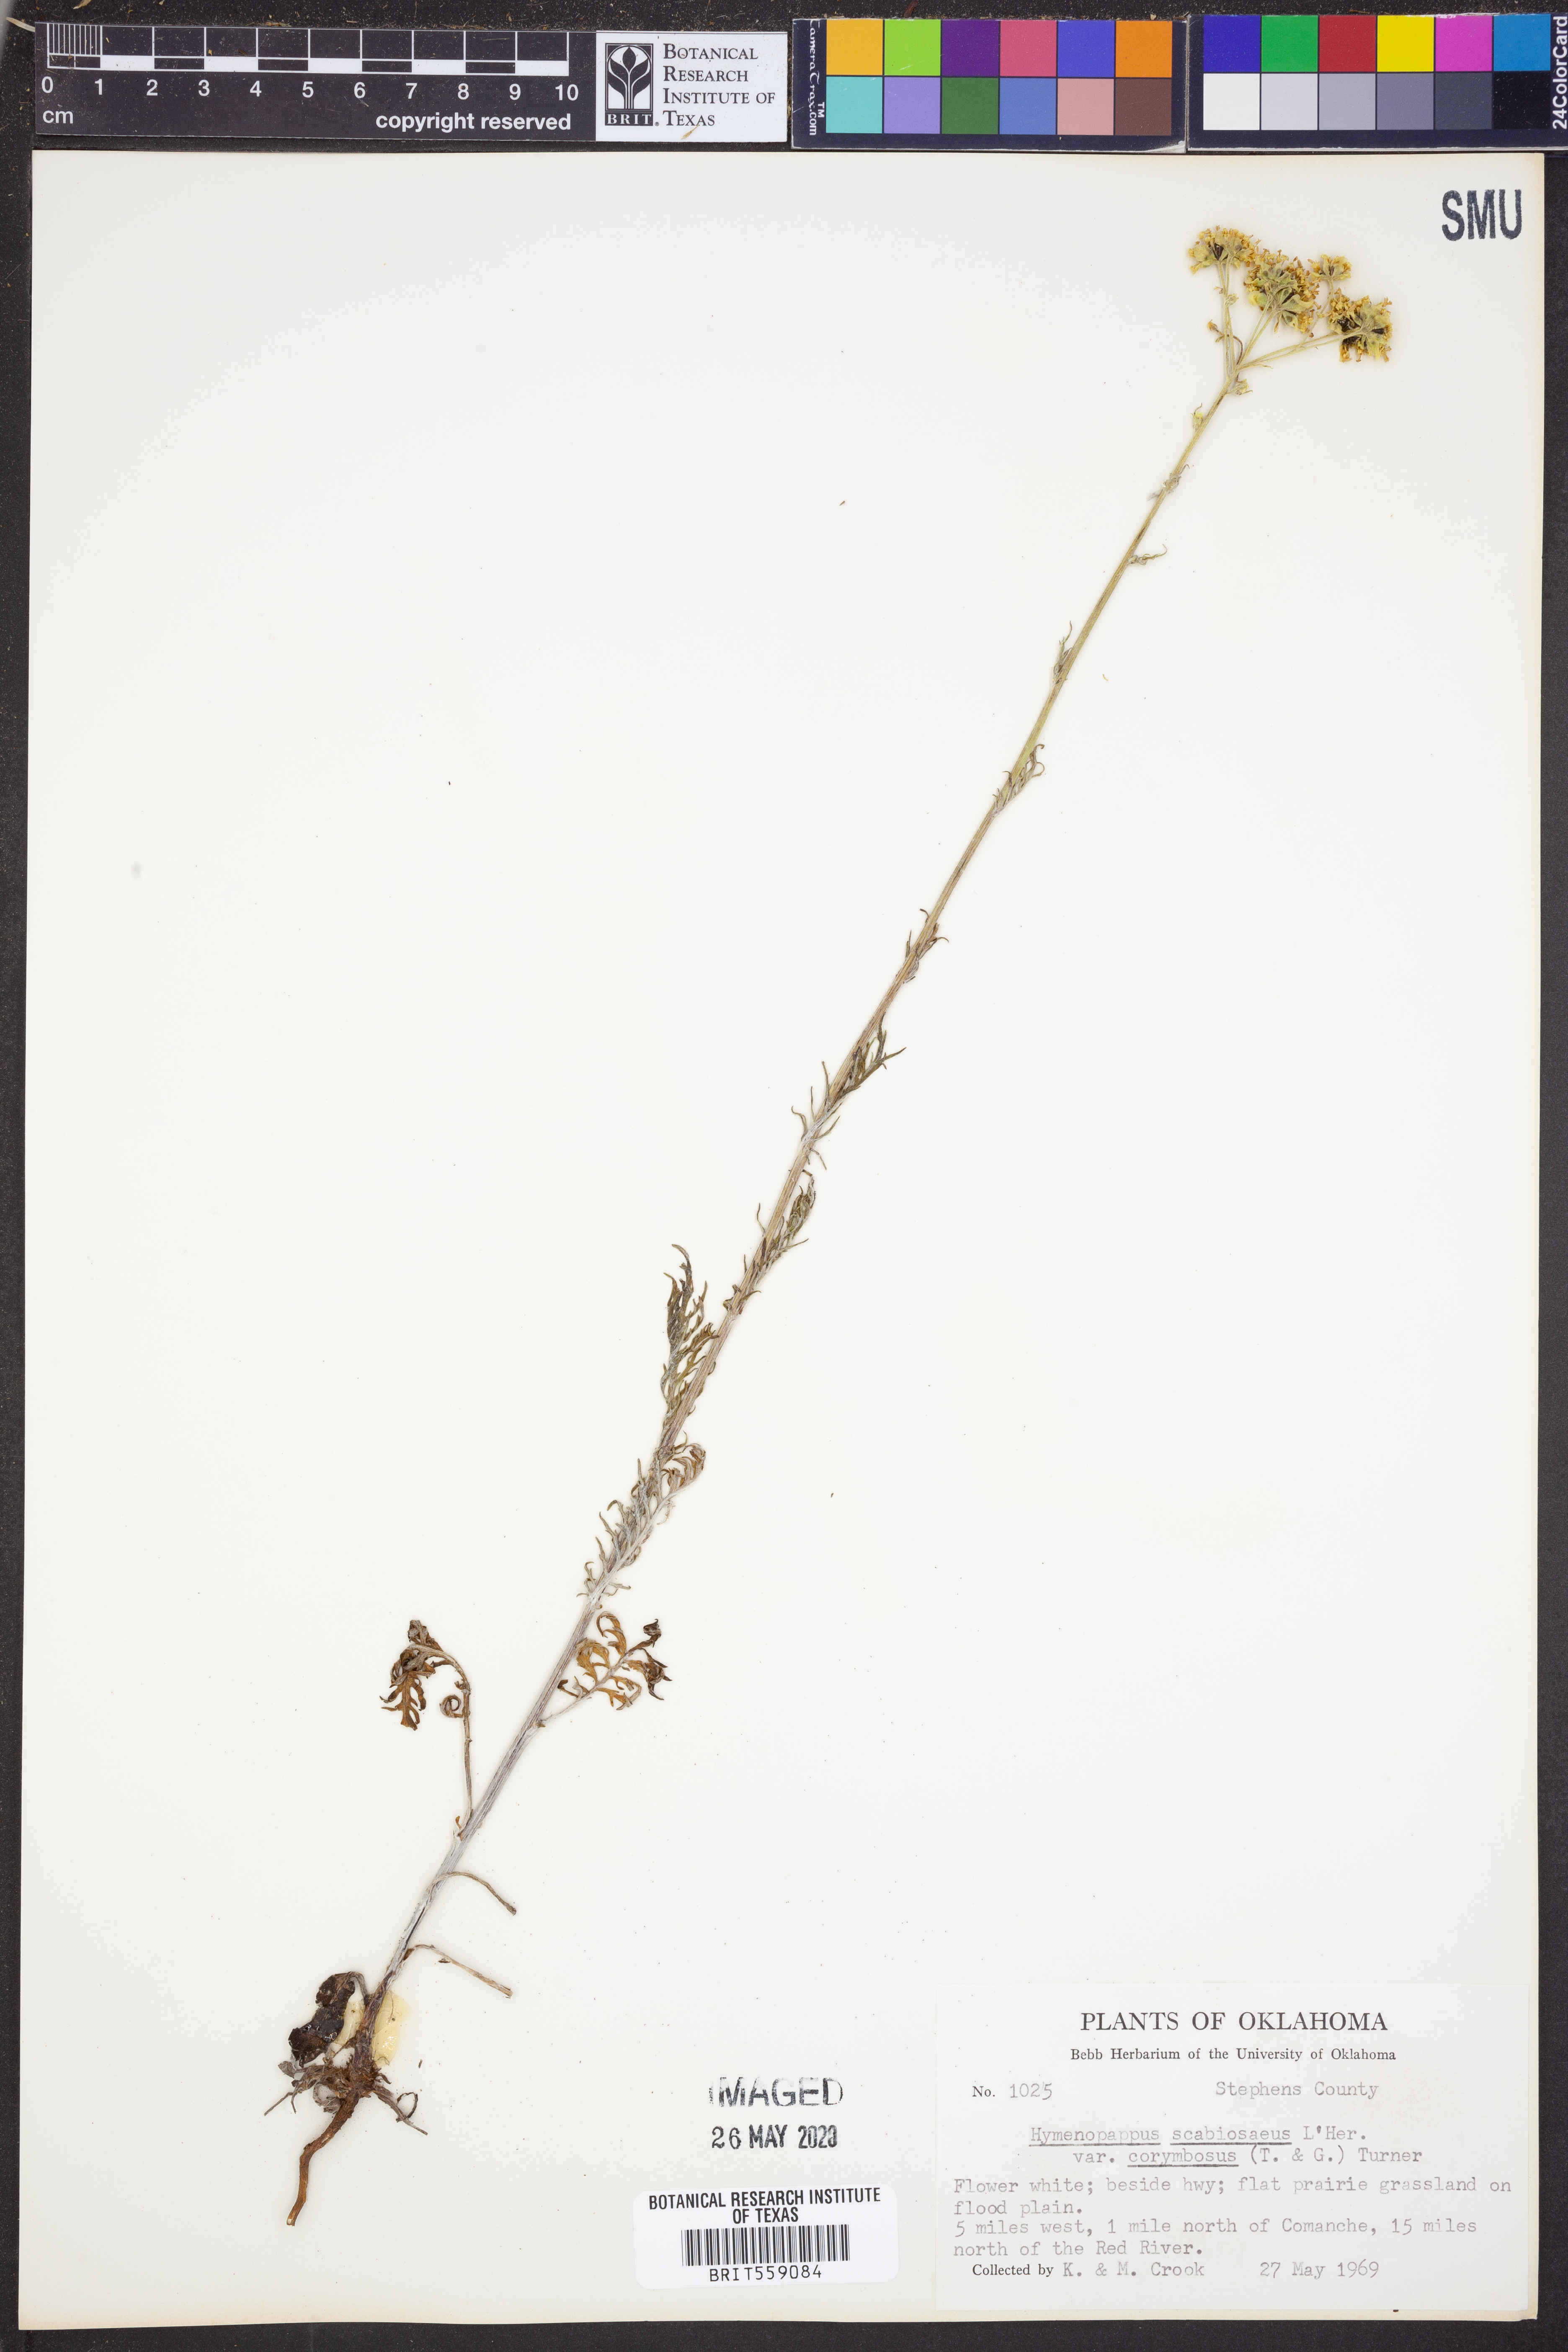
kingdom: Plantae
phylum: Tracheophyta
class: Magnoliopsida
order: Asterales
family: Asteraceae
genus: Hymenopappus
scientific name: Hymenopappus scabiosaeus
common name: Carolina woollywhite
